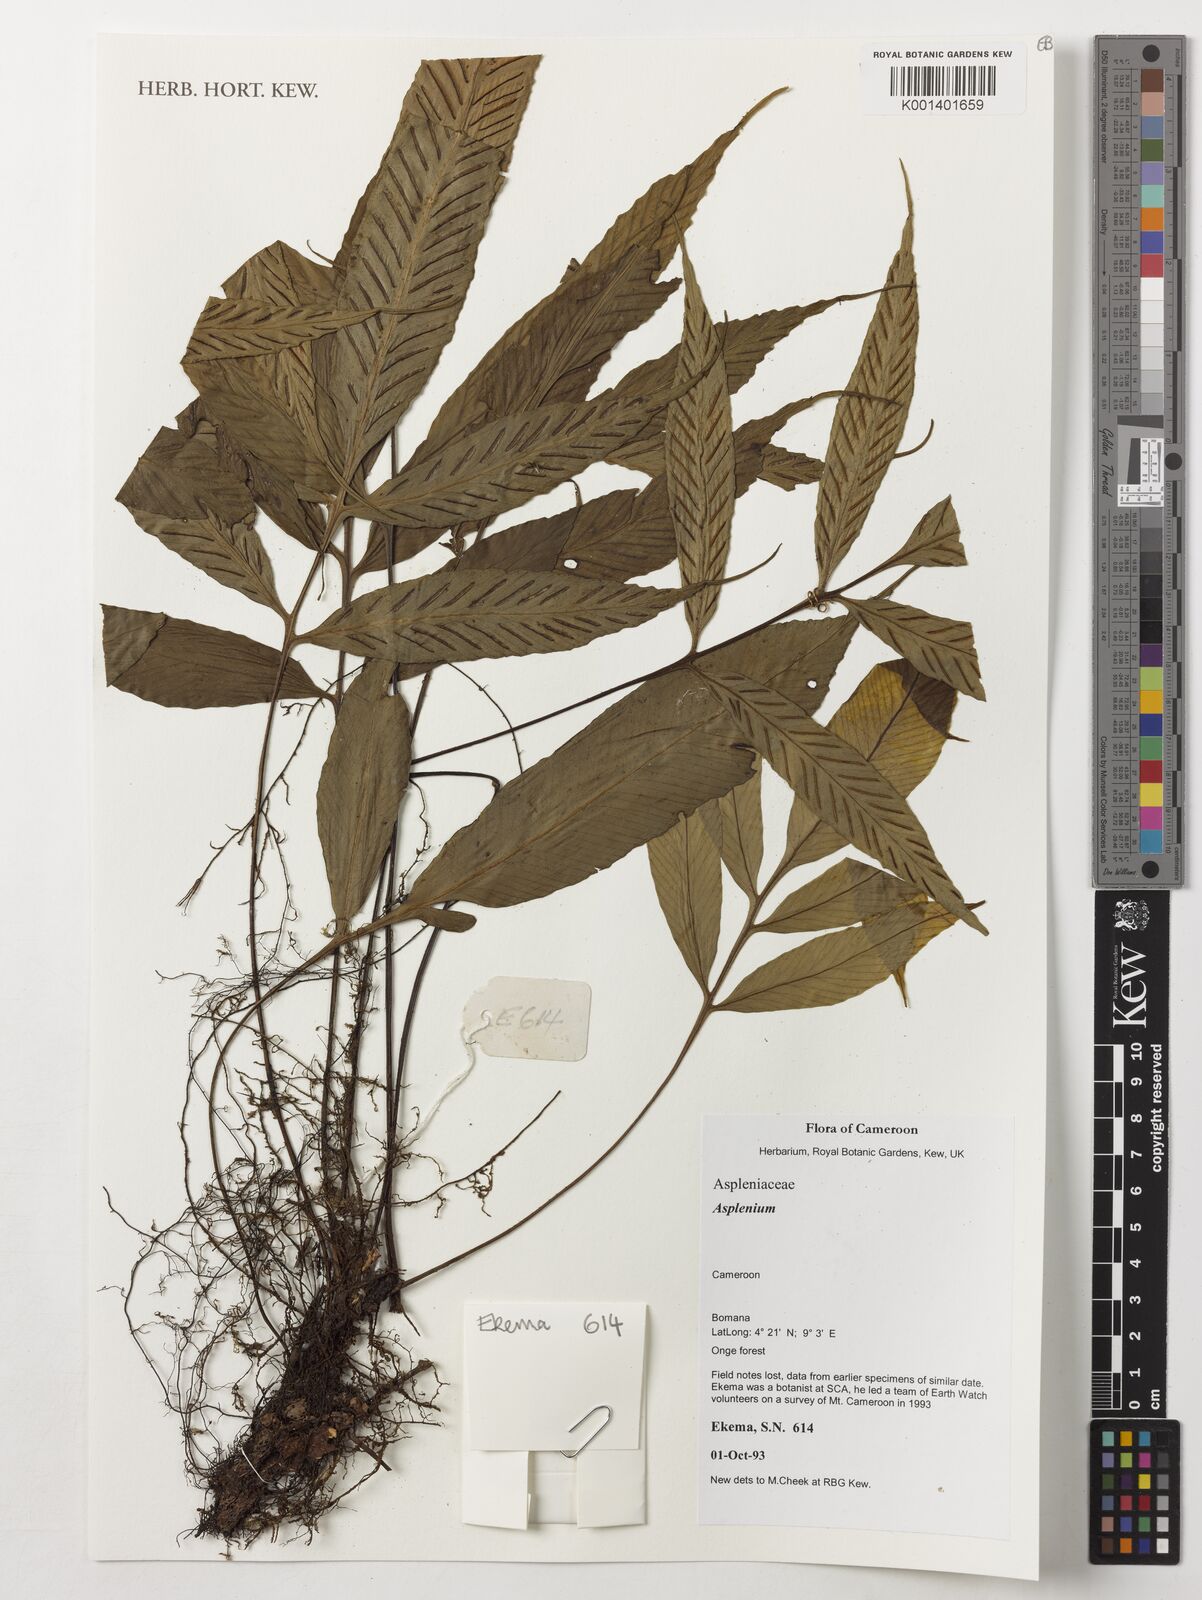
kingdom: Plantae
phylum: Tracheophyta
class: Polypodiopsida
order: Polypodiales
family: Aspleniaceae
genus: Asplenium
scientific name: Asplenium
